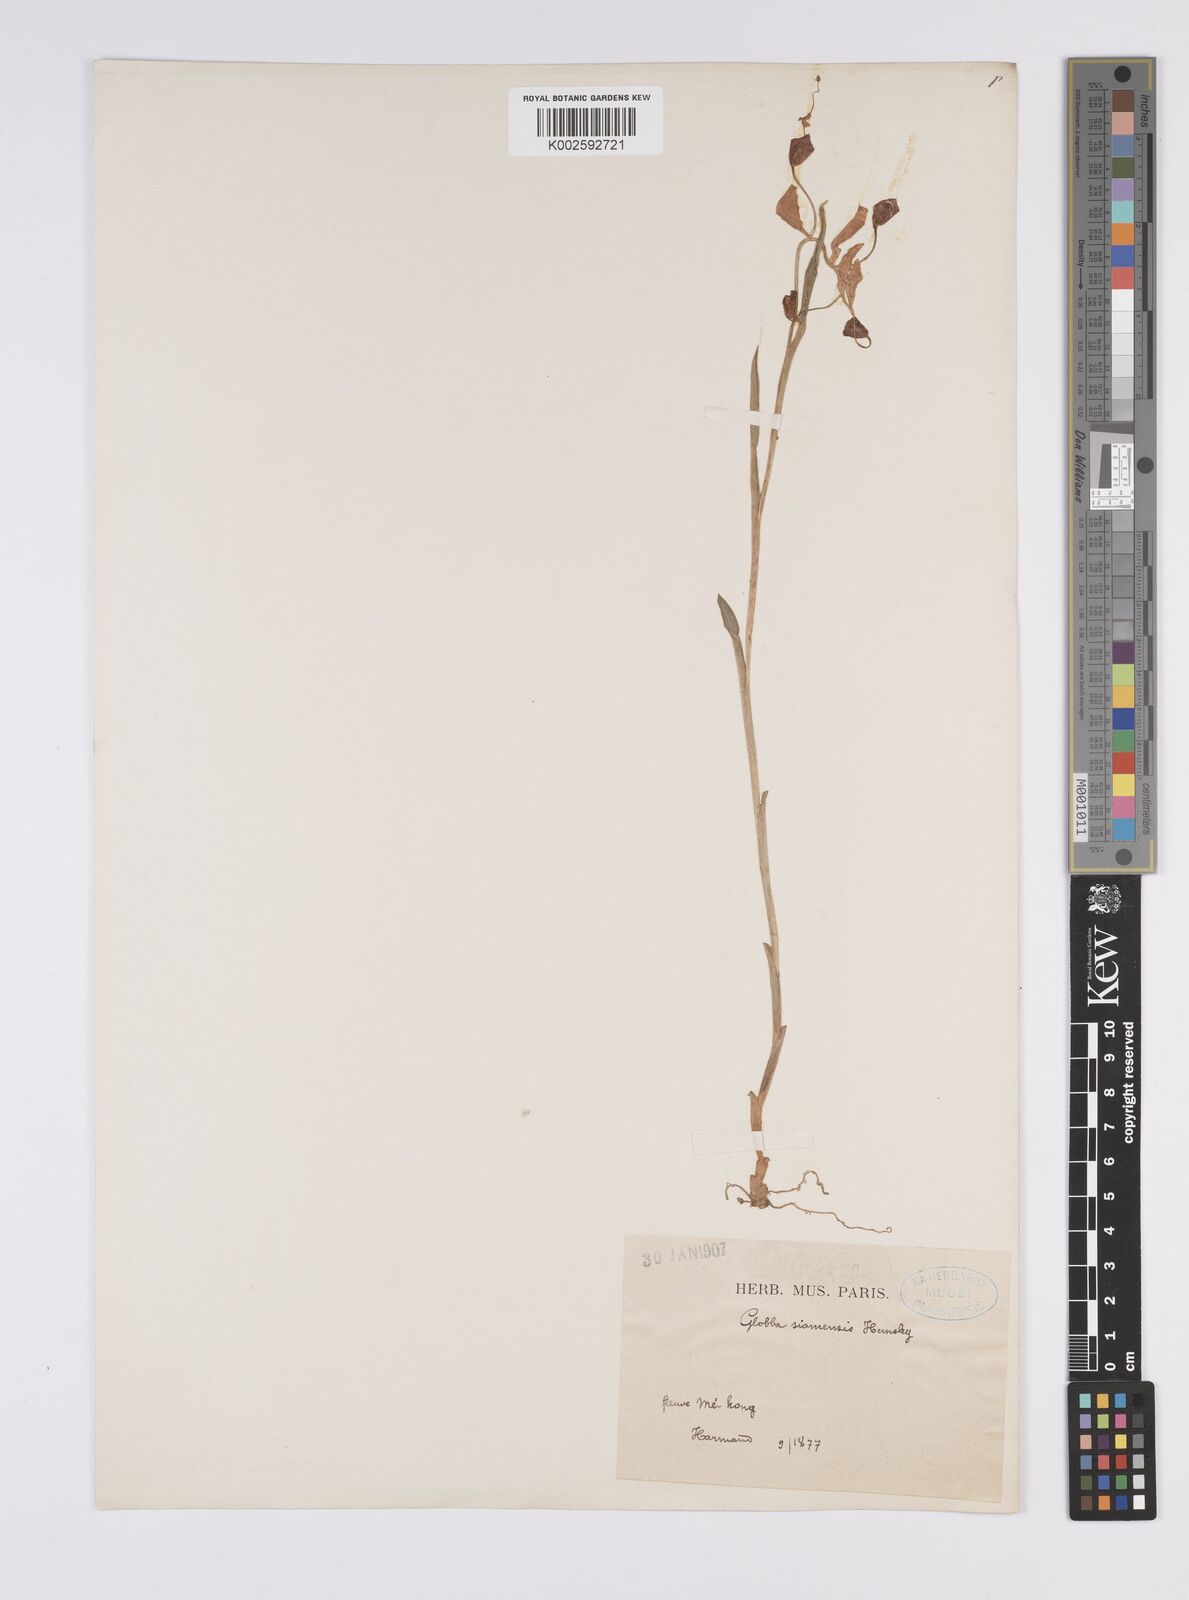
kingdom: Plantae
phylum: Tracheophyta
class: Liliopsida
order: Zingiberales
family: Zingiberaceae
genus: Globba
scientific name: Globba siamensis
